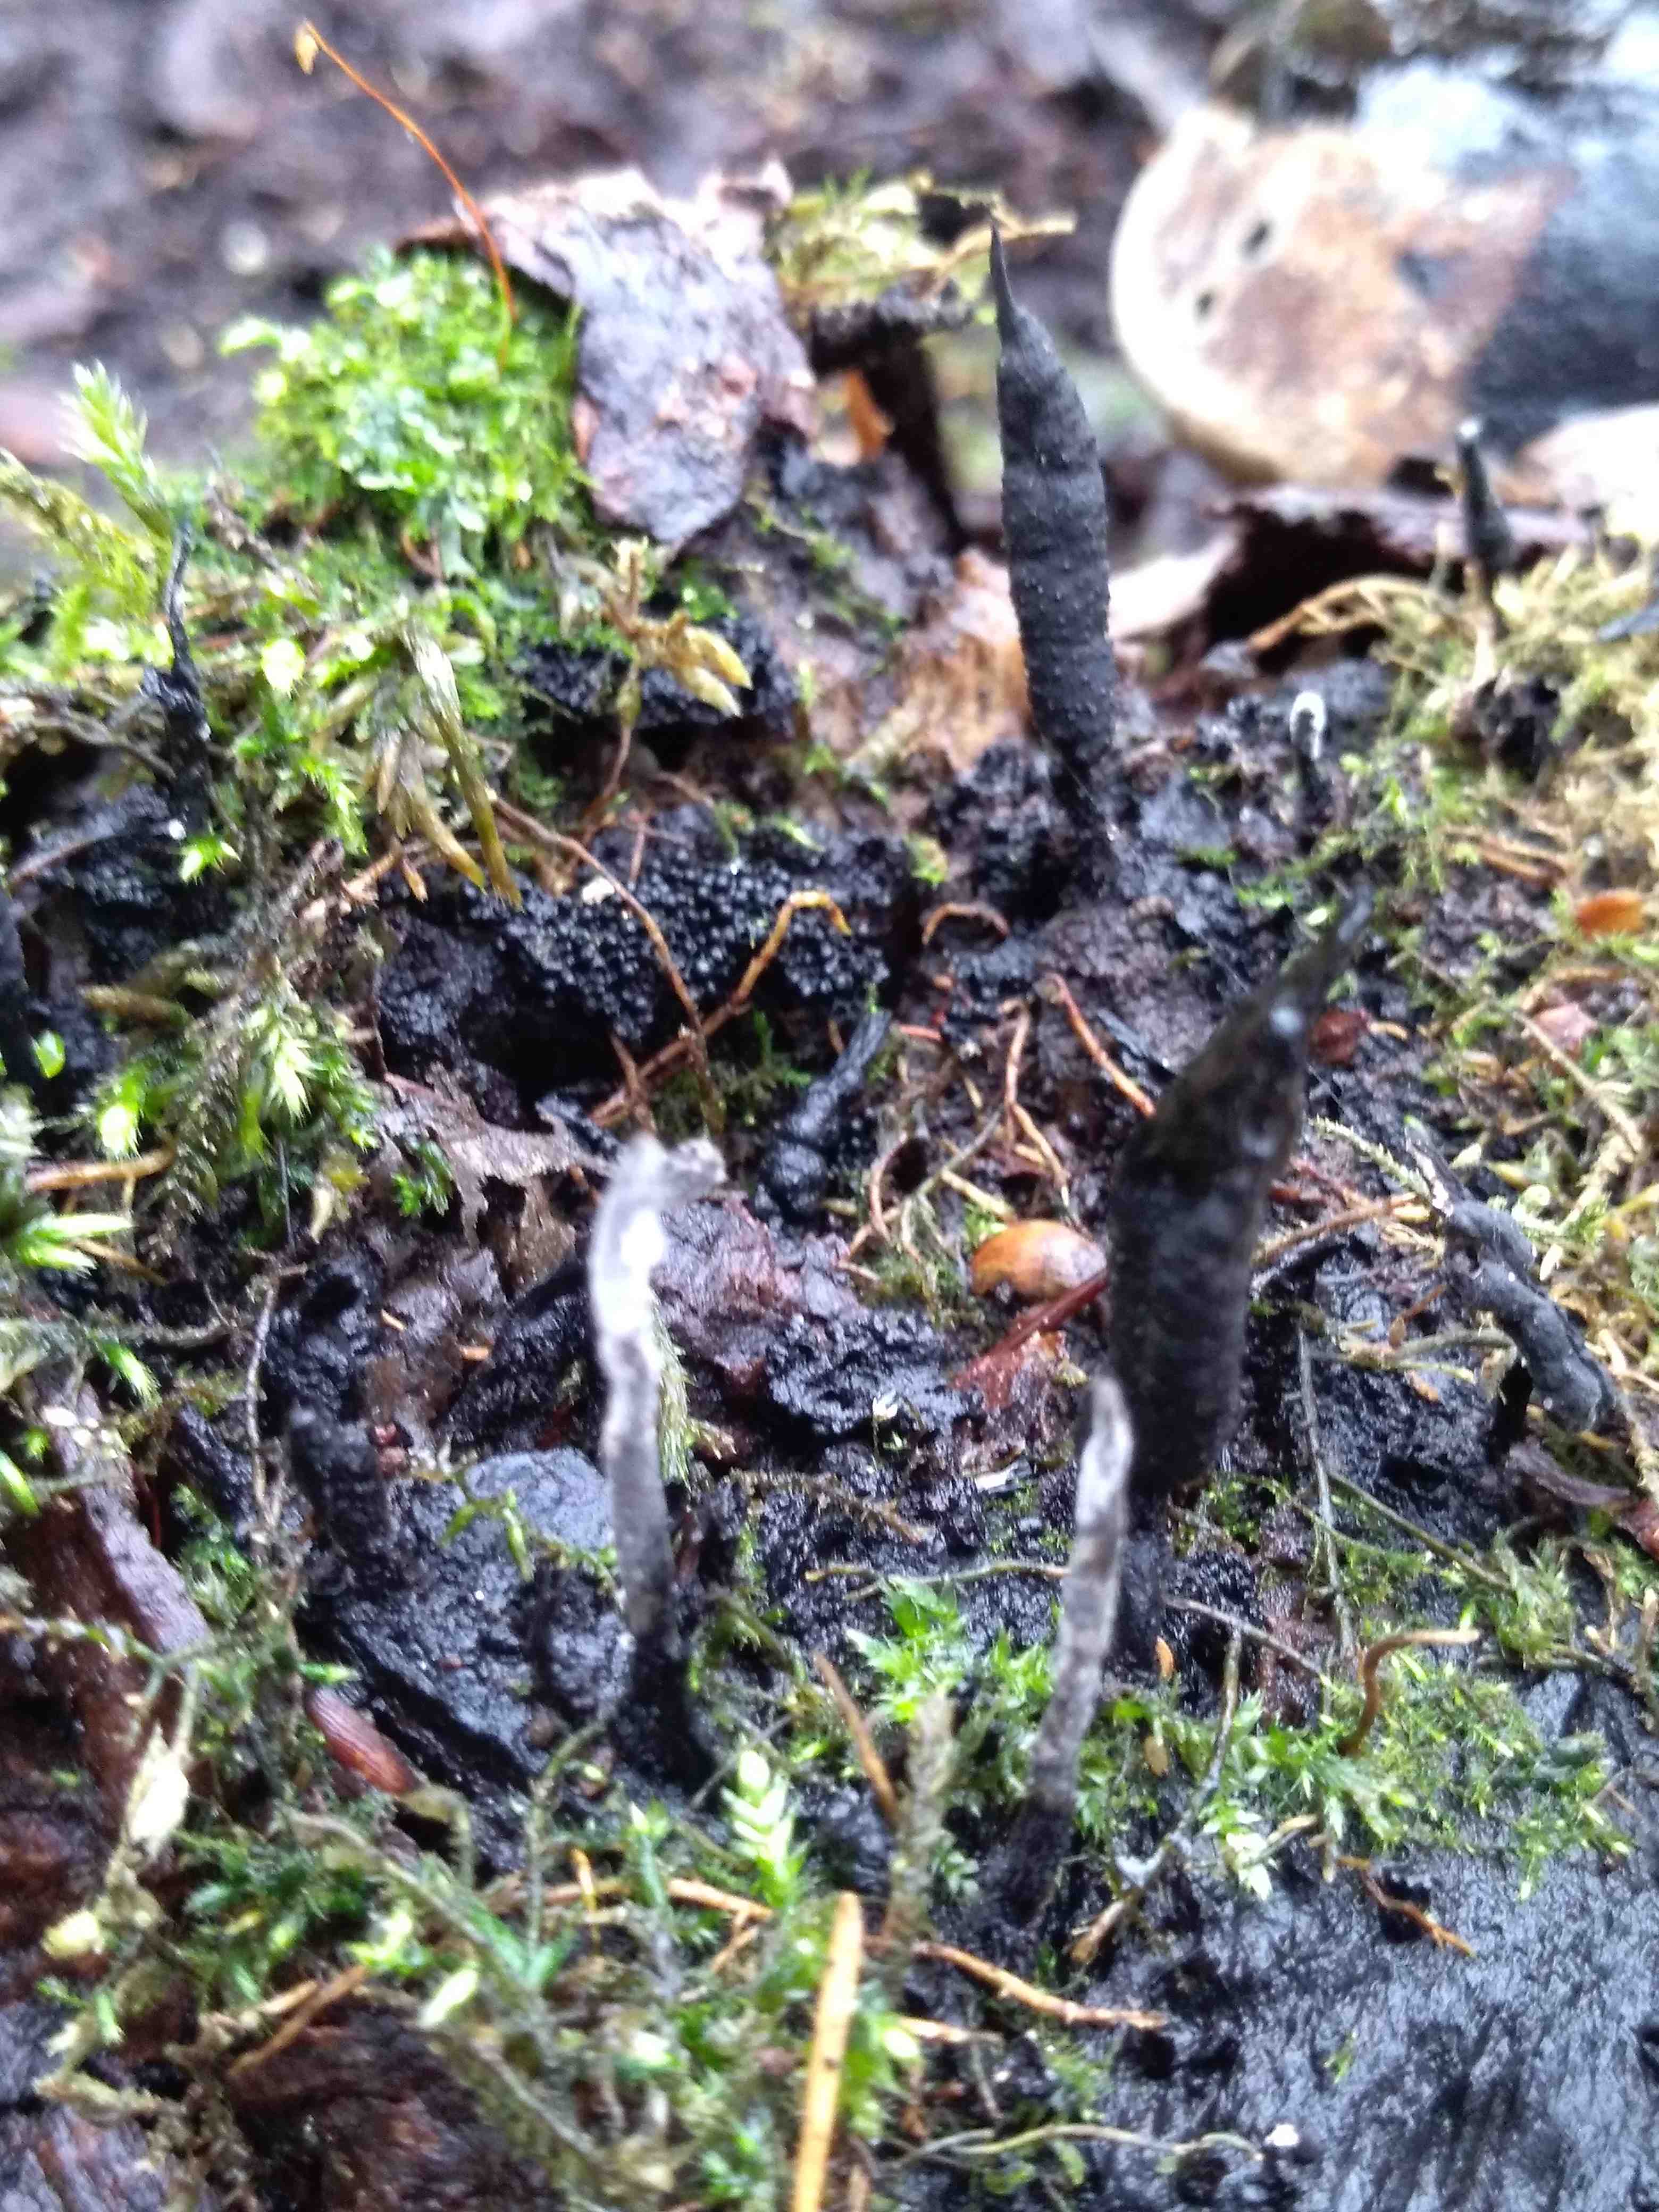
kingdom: Fungi
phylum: Ascomycota
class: Sordariomycetes
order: Xylariales
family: Xylariaceae
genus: Xylaria
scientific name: Xylaria hypoxylon
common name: grenet stødsvamp
